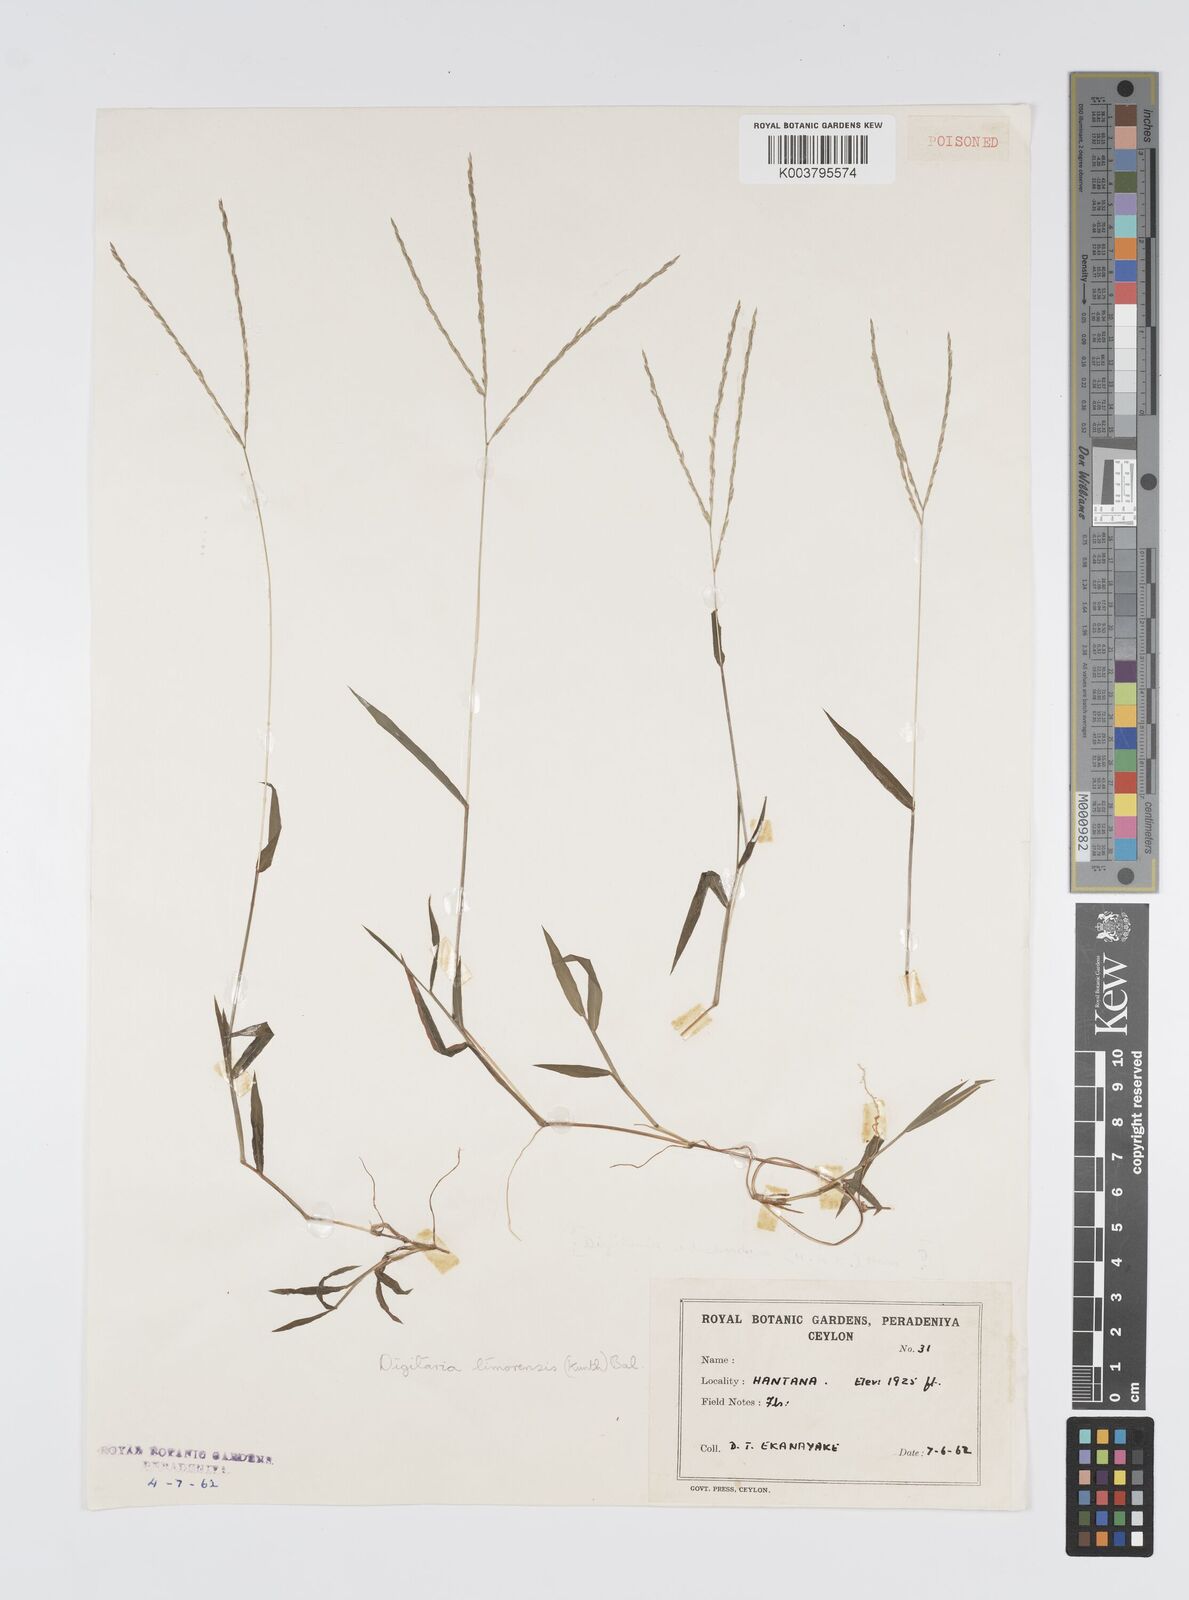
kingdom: Plantae
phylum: Tracheophyta
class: Liliopsida
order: Poales
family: Poaceae
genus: Digitaria
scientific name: Digitaria radicosa
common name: Trailing crabgrass
